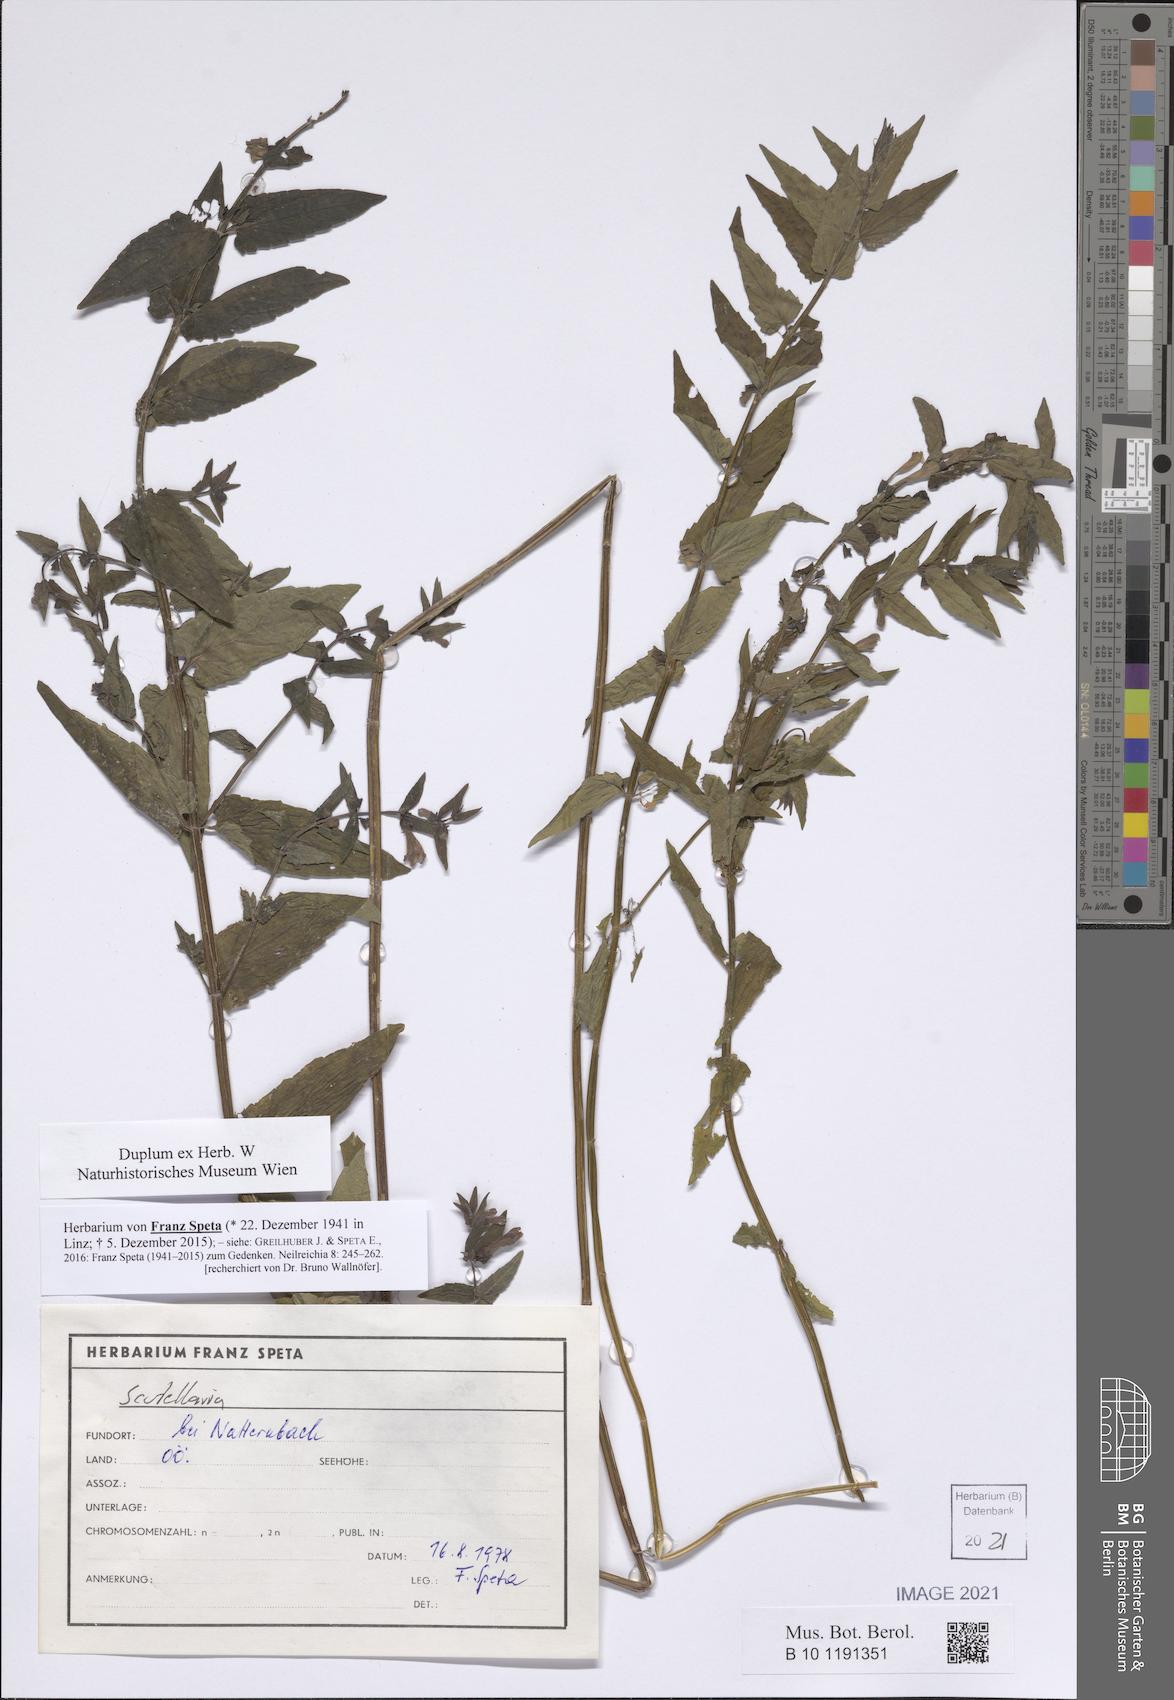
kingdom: Plantae
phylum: Tracheophyta
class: Magnoliopsida
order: Lamiales
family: Lamiaceae
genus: Scutellaria
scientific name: Scutellaria
